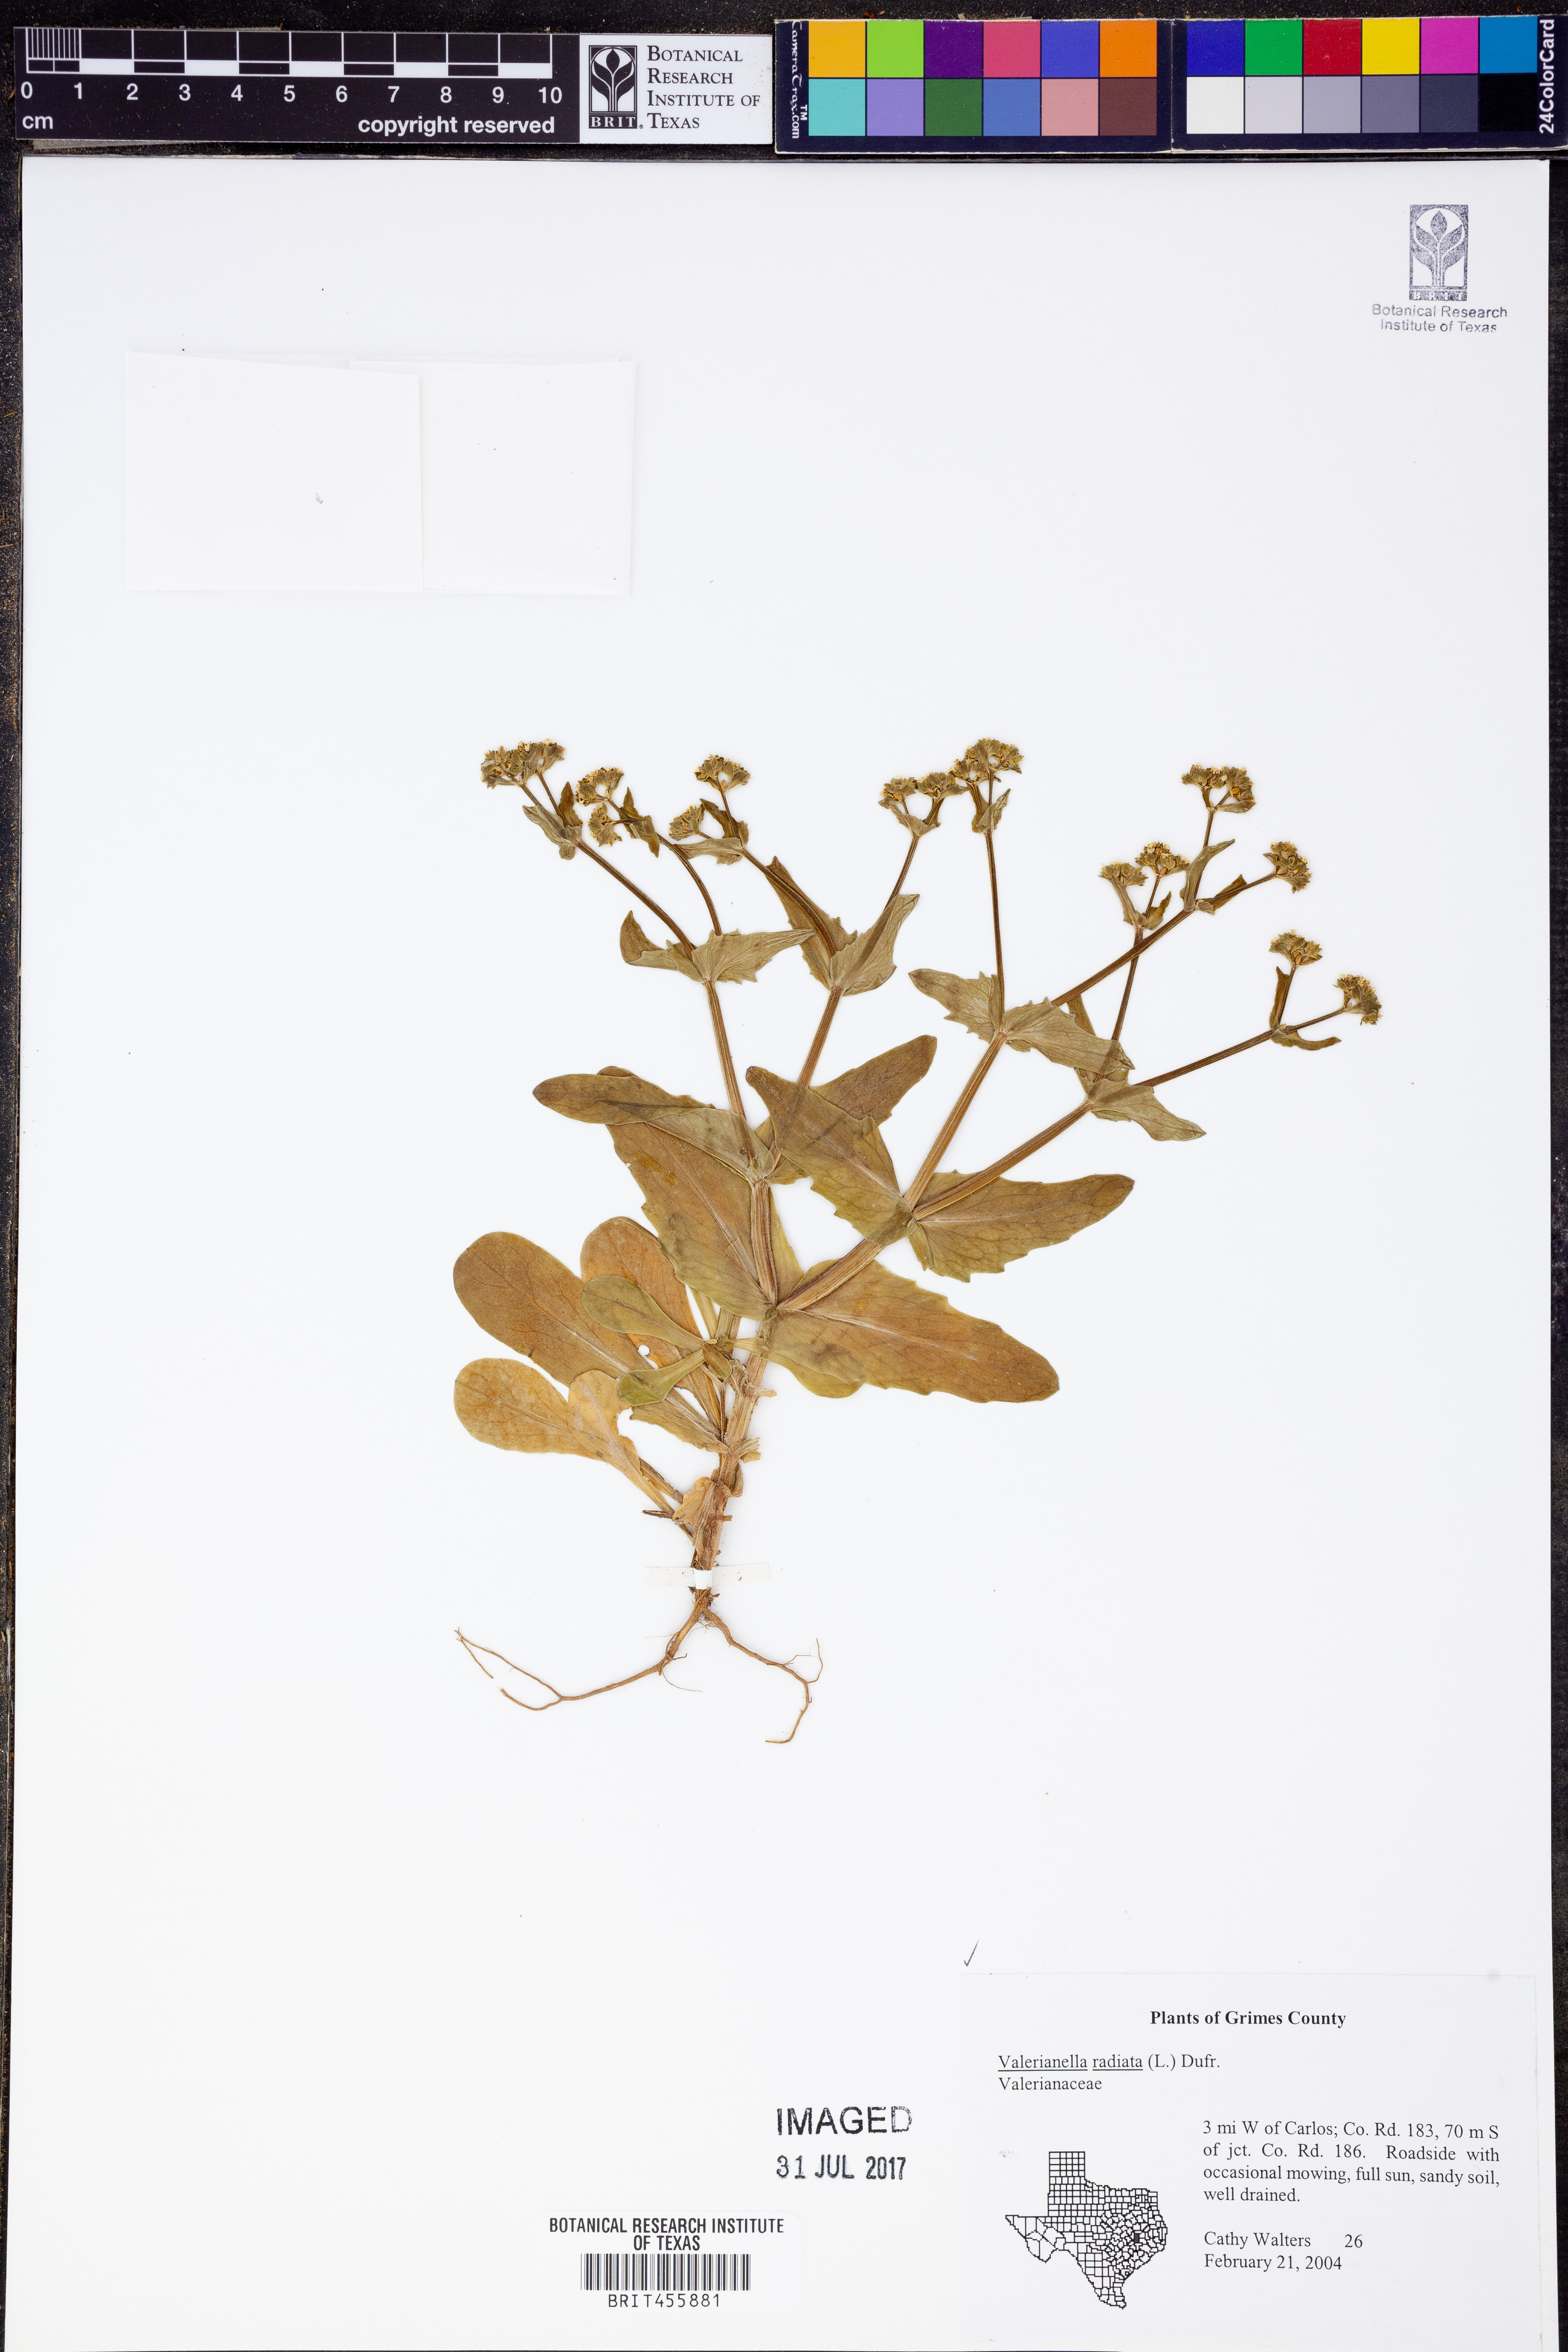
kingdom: Plantae
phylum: Tracheophyta
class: Magnoliopsida
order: Dipsacales
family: Caprifoliaceae
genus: Valerianella
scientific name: Valerianella radiata
